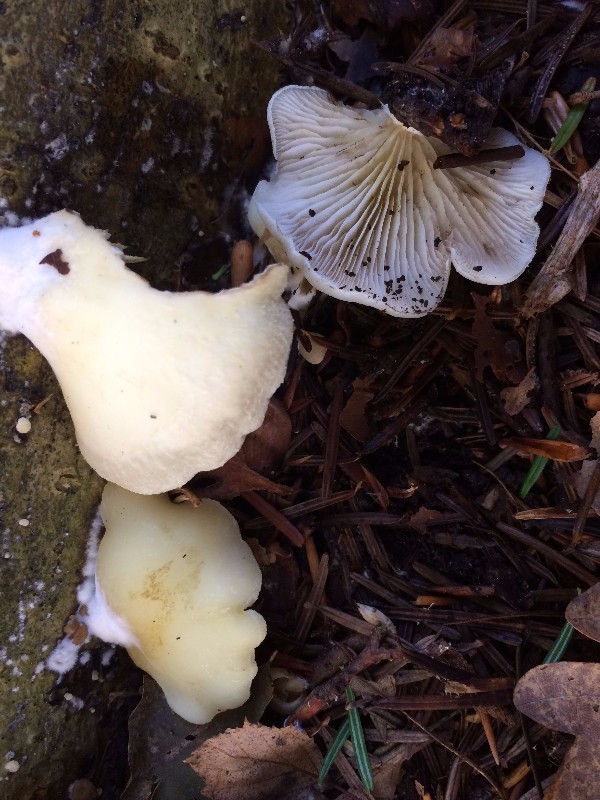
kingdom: Fungi
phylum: Basidiomycota
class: Agaricomycetes
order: Agaricales
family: Crepidotaceae
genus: Crepidotus
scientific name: Crepidotus mollis
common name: blød muslingesvamp
